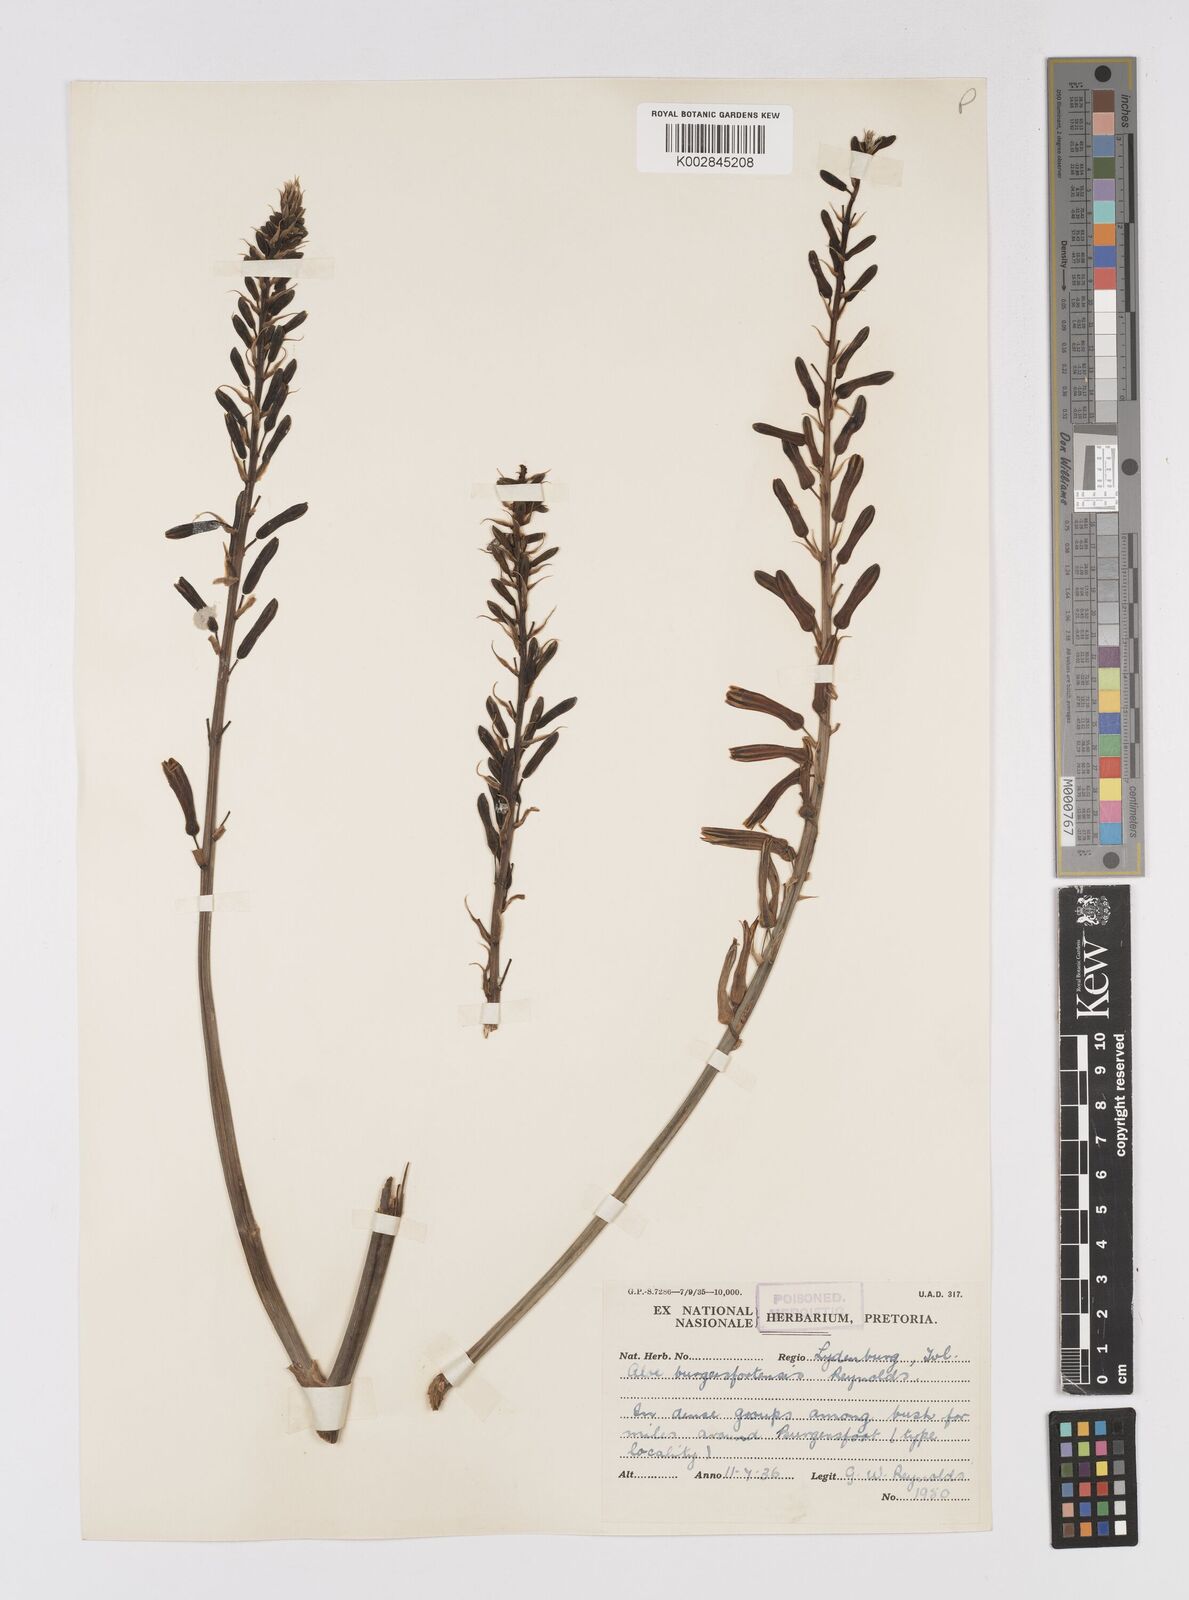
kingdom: Plantae
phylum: Tracheophyta
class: Liliopsida
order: Asparagales
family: Asphodelaceae
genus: Aloe
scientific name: Aloe burgersfortensis
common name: Burgersfort aloe
